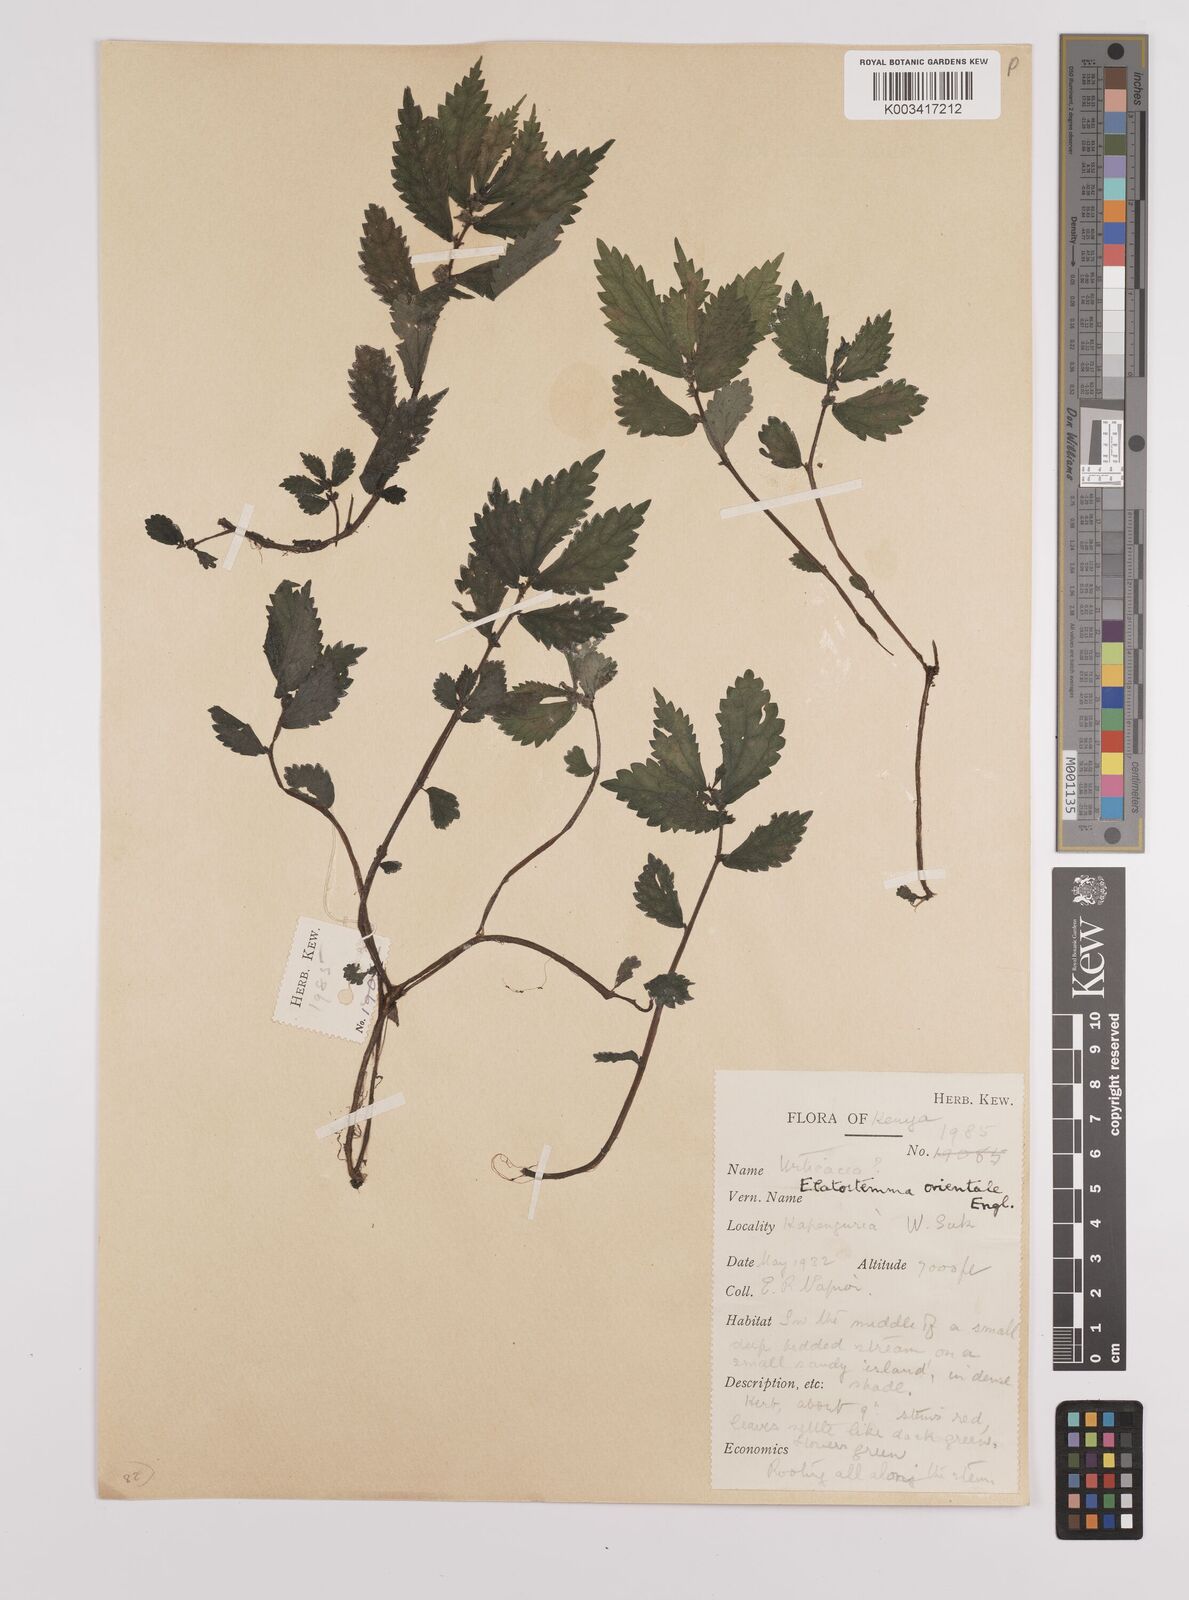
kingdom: Plantae
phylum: Tracheophyta
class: Magnoliopsida
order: Rosales
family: Urticaceae
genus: Elatostema
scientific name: Elatostema monticola
